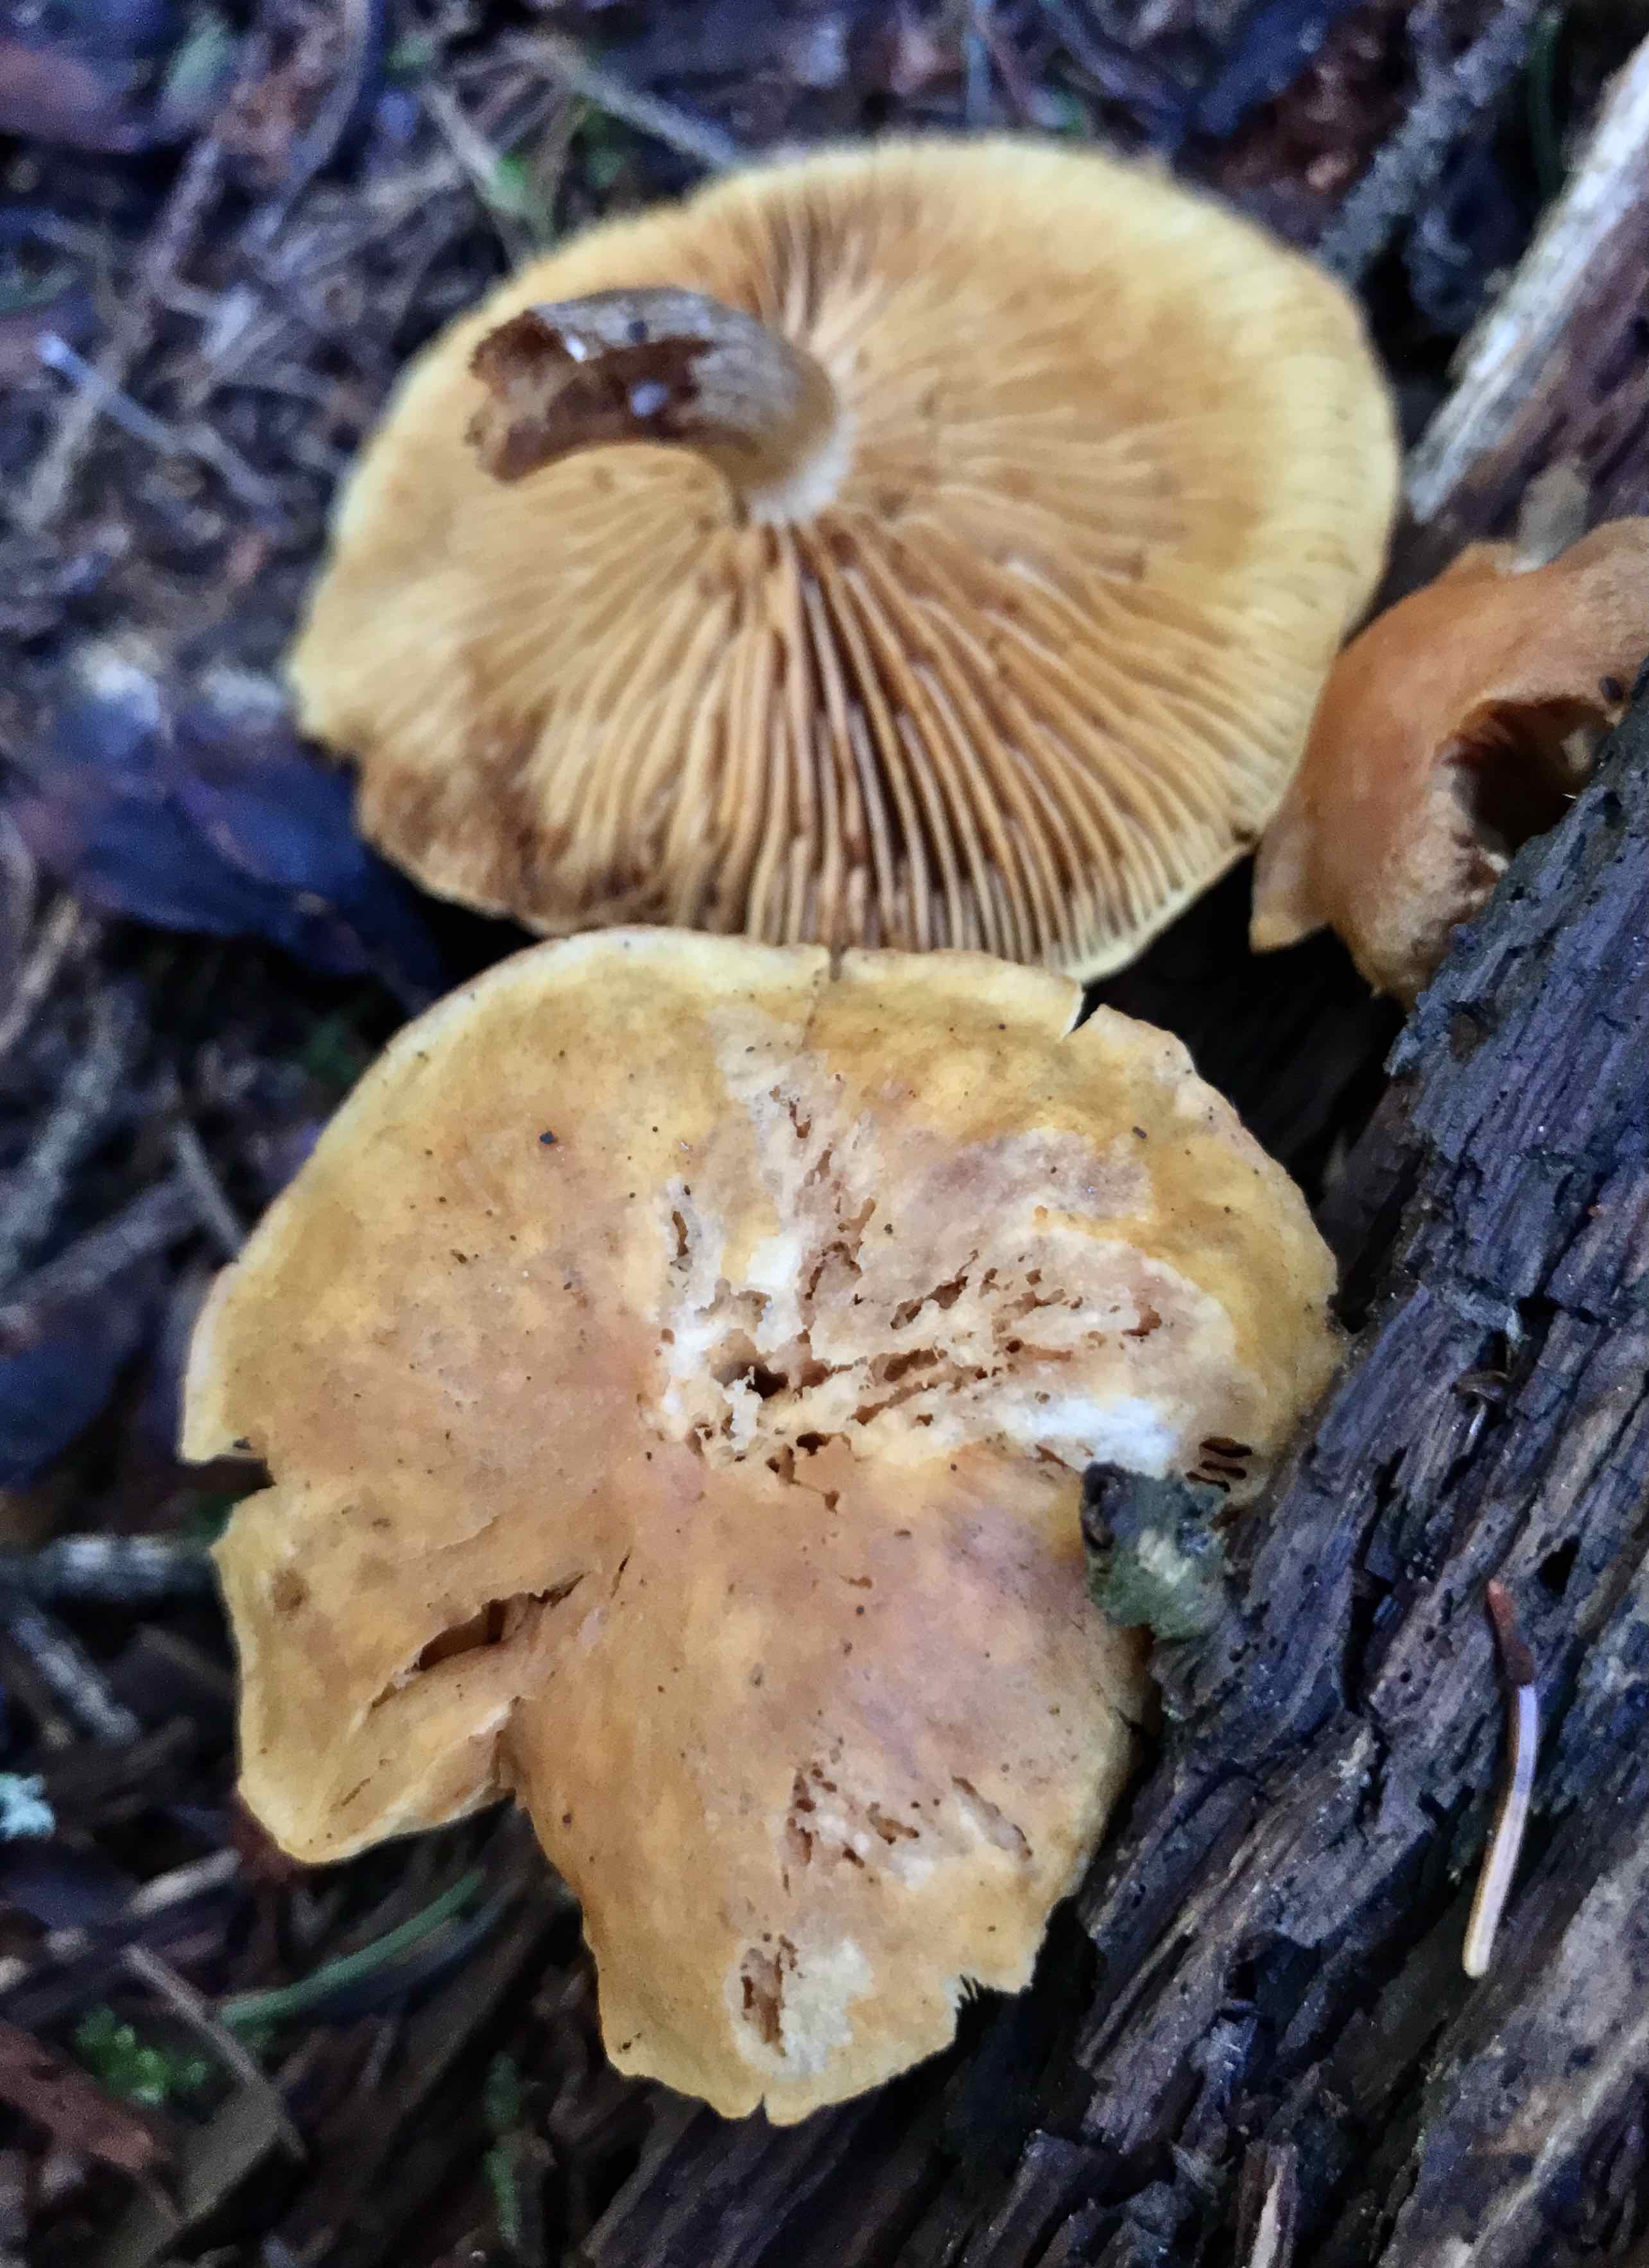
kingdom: Fungi
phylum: Basidiomycota
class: Agaricomycetes
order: Agaricales
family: Hymenogastraceae
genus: Gymnopilus
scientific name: Gymnopilus penetrans
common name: plettet flammehat
